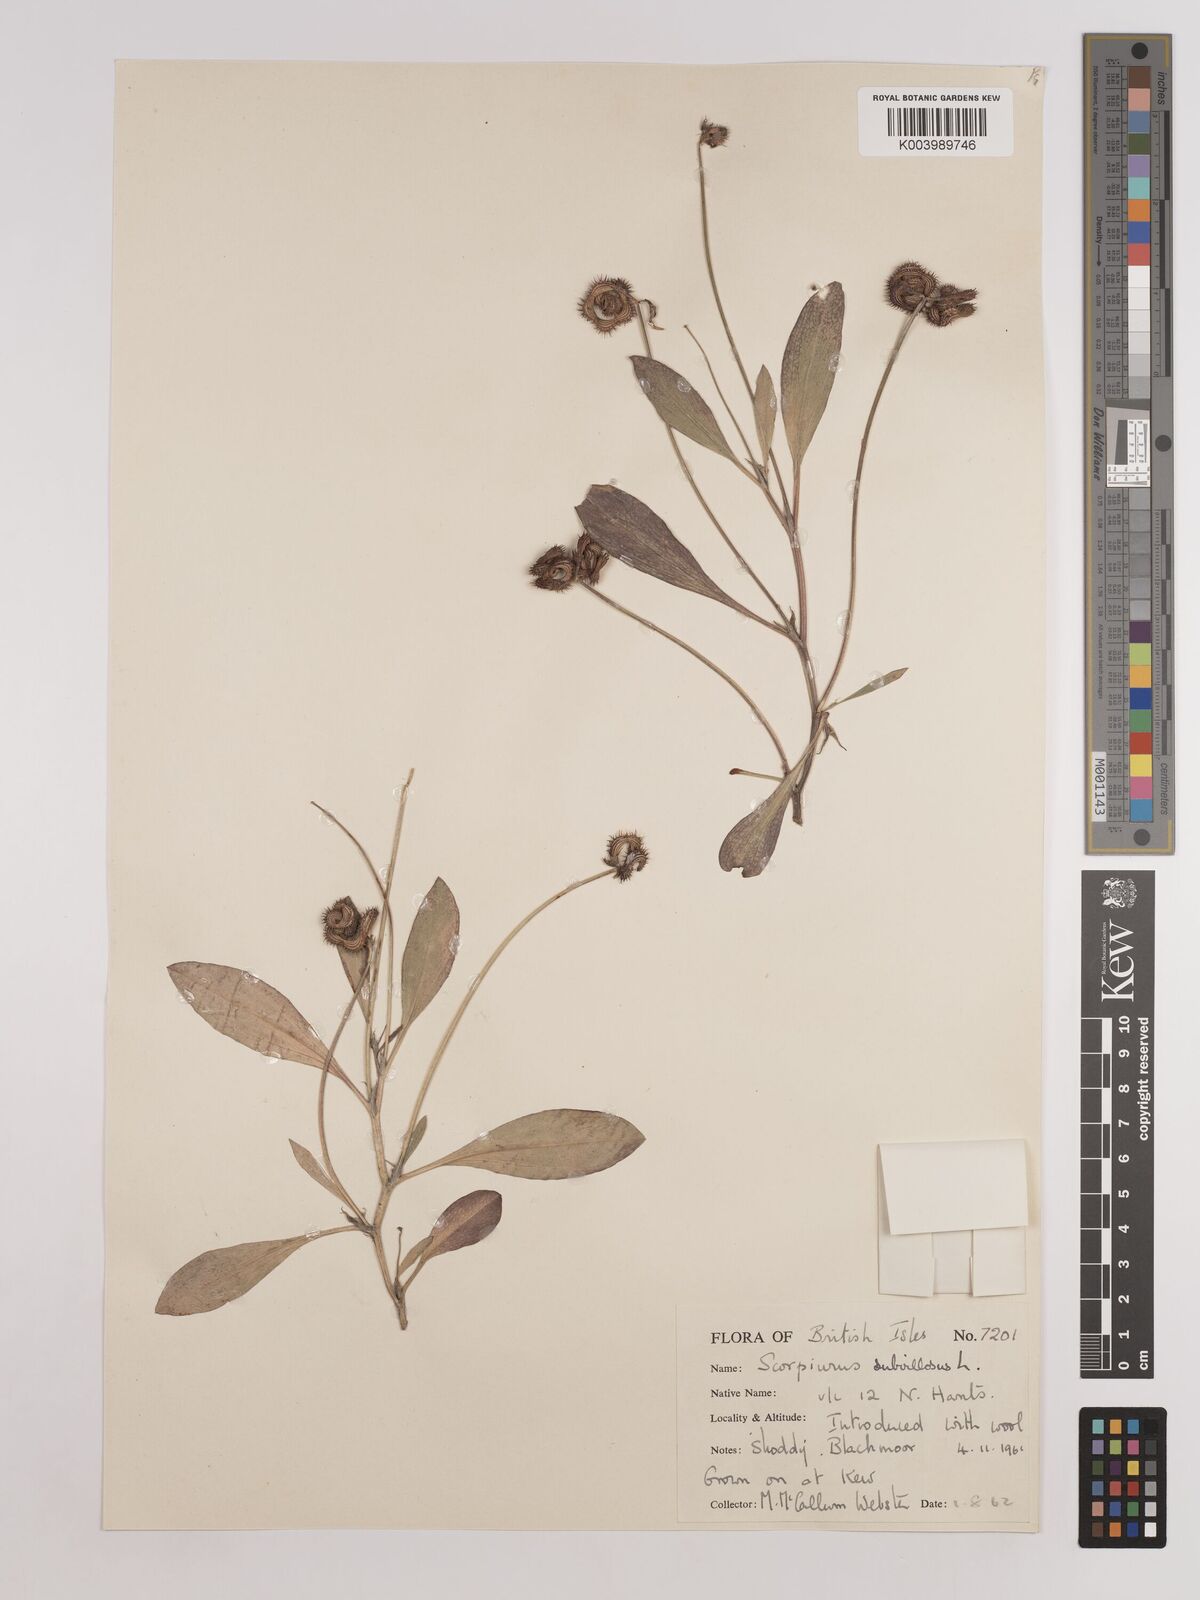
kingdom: Plantae
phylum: Tracheophyta
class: Magnoliopsida
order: Fabales
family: Fabaceae
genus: Scorpiurus
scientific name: Scorpiurus muricatus
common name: Caterpillar-plant
